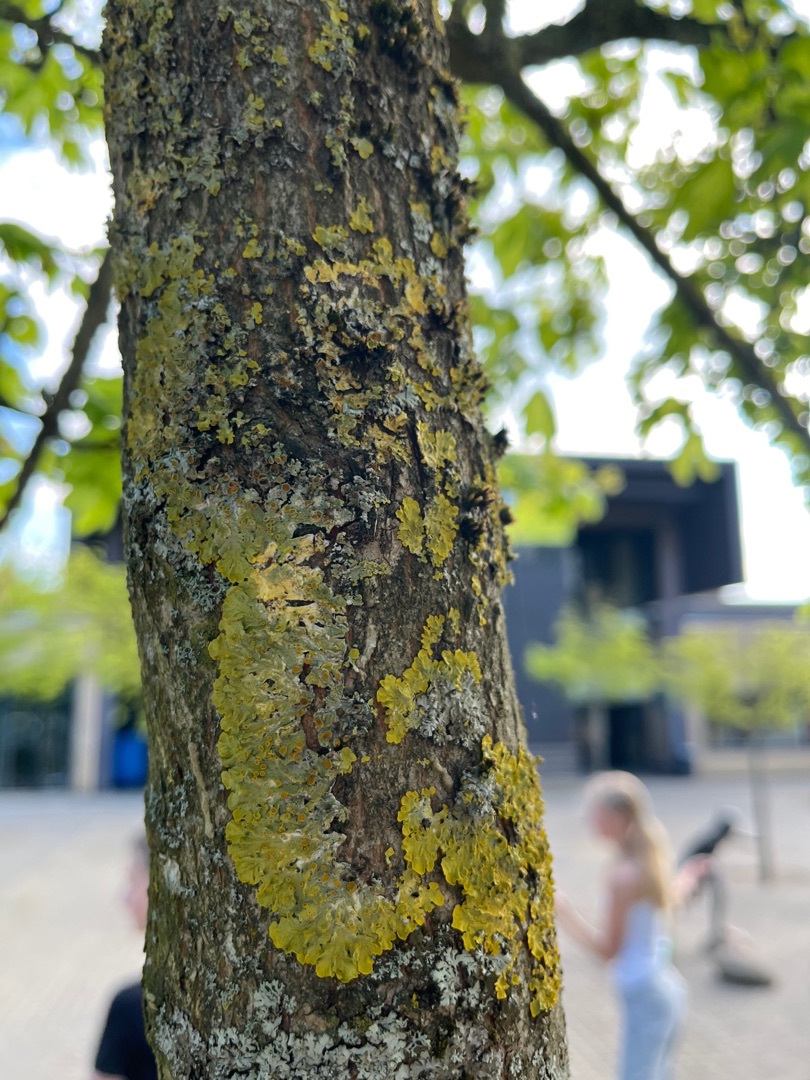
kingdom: Fungi
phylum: Ascomycota
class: Lecanoromycetes
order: Teloschistales
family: Teloschistaceae
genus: Xanthoria
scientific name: Xanthoria parietina
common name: Almindelig væggelav
